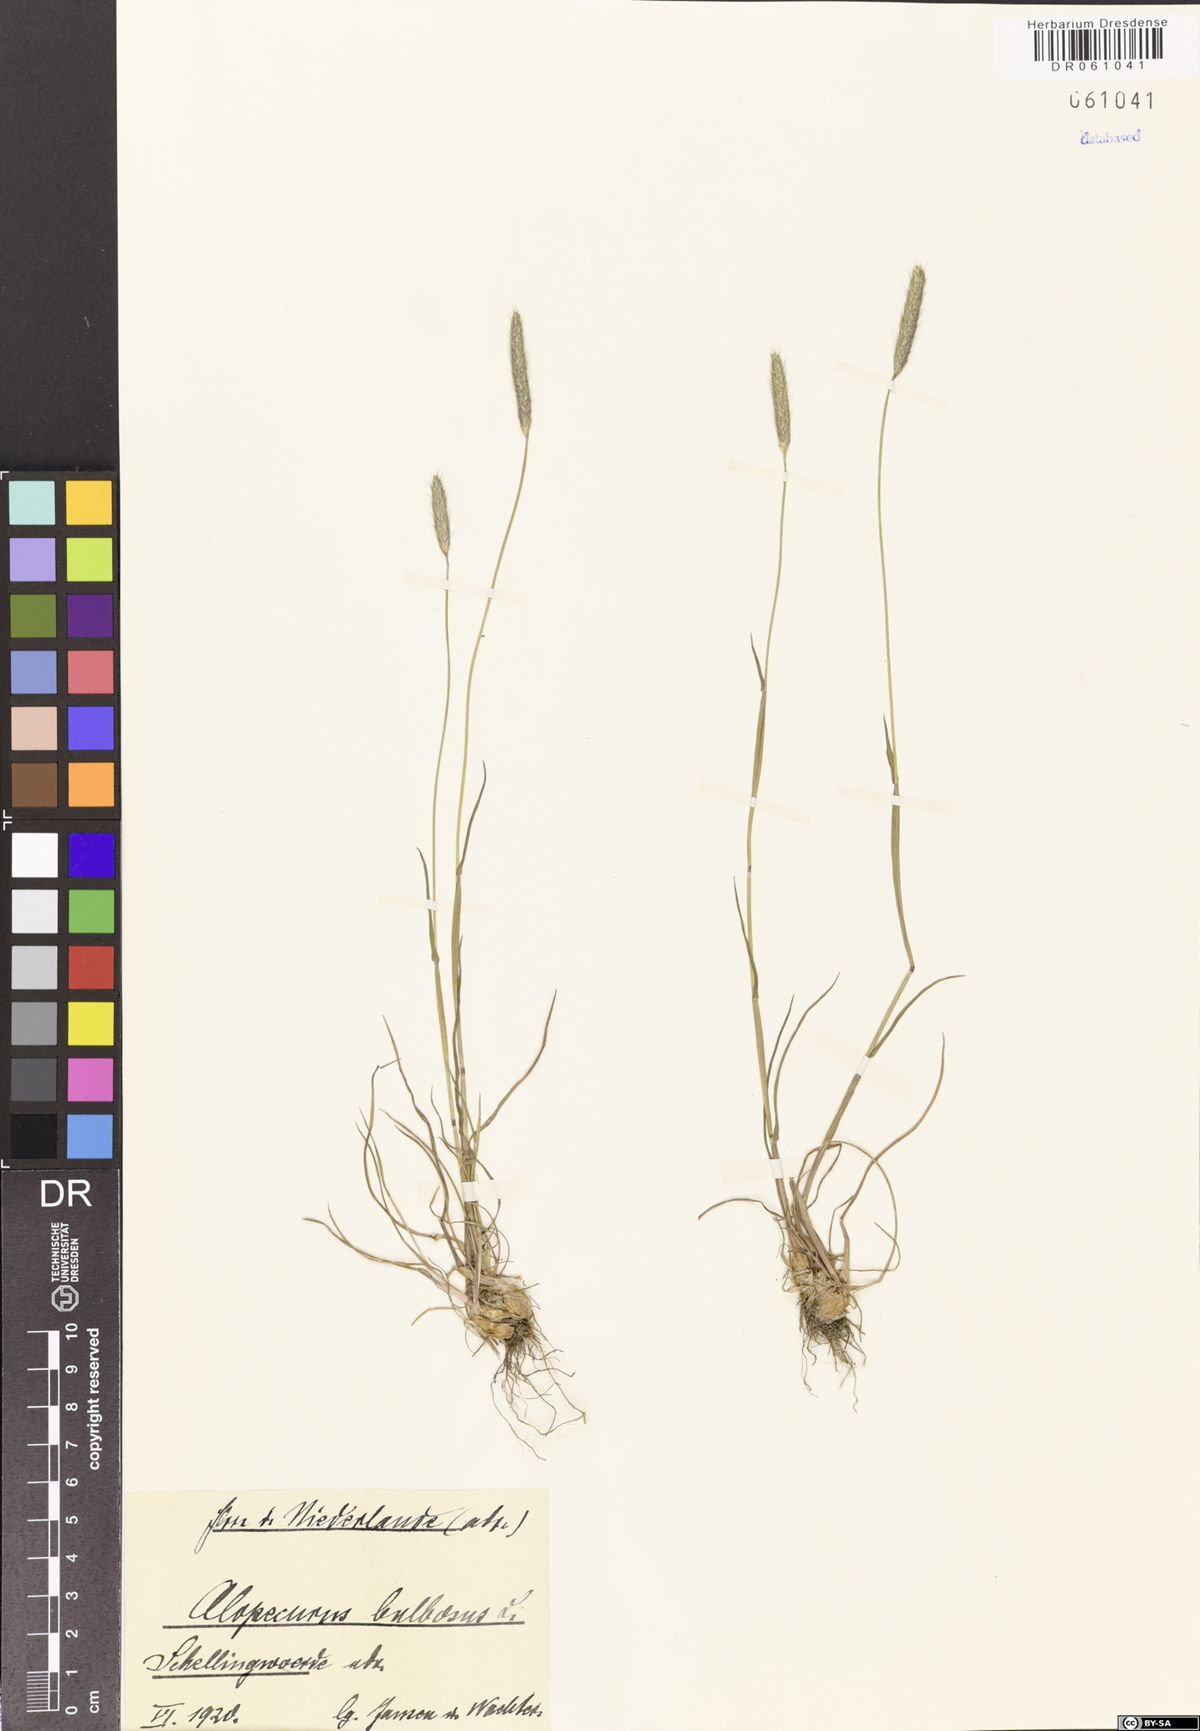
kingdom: Plantae
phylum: Tracheophyta
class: Liliopsida
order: Poales
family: Poaceae
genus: Alopecurus
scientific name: Alopecurus bulbosus
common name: Bulbous foxtail
